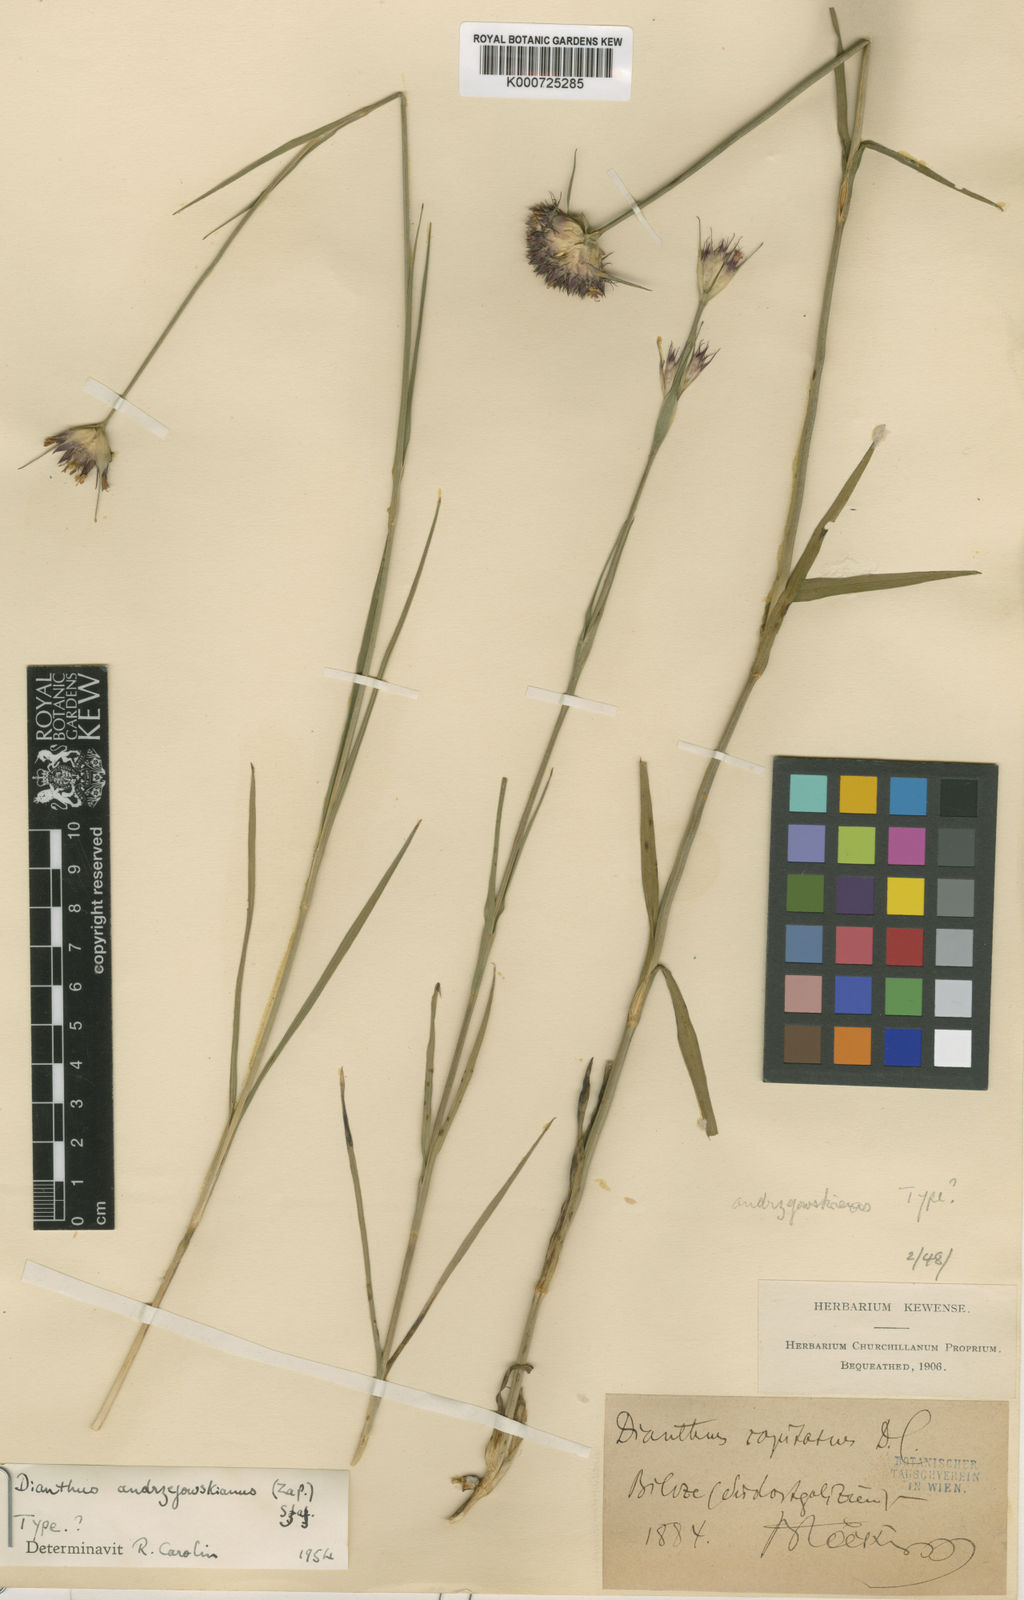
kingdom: Plantae
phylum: Tracheophyta
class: Magnoliopsida
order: Caryophyllales
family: Caryophyllaceae
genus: Dianthus
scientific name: Dianthus
